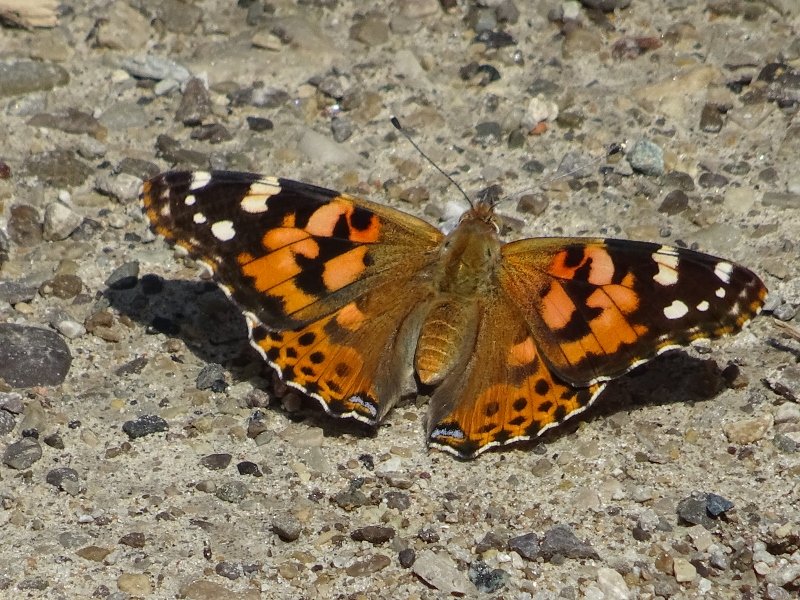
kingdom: Animalia
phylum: Arthropoda
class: Insecta
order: Lepidoptera
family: Nymphalidae
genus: Vanessa
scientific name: Vanessa cardui
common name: Painted Lady
